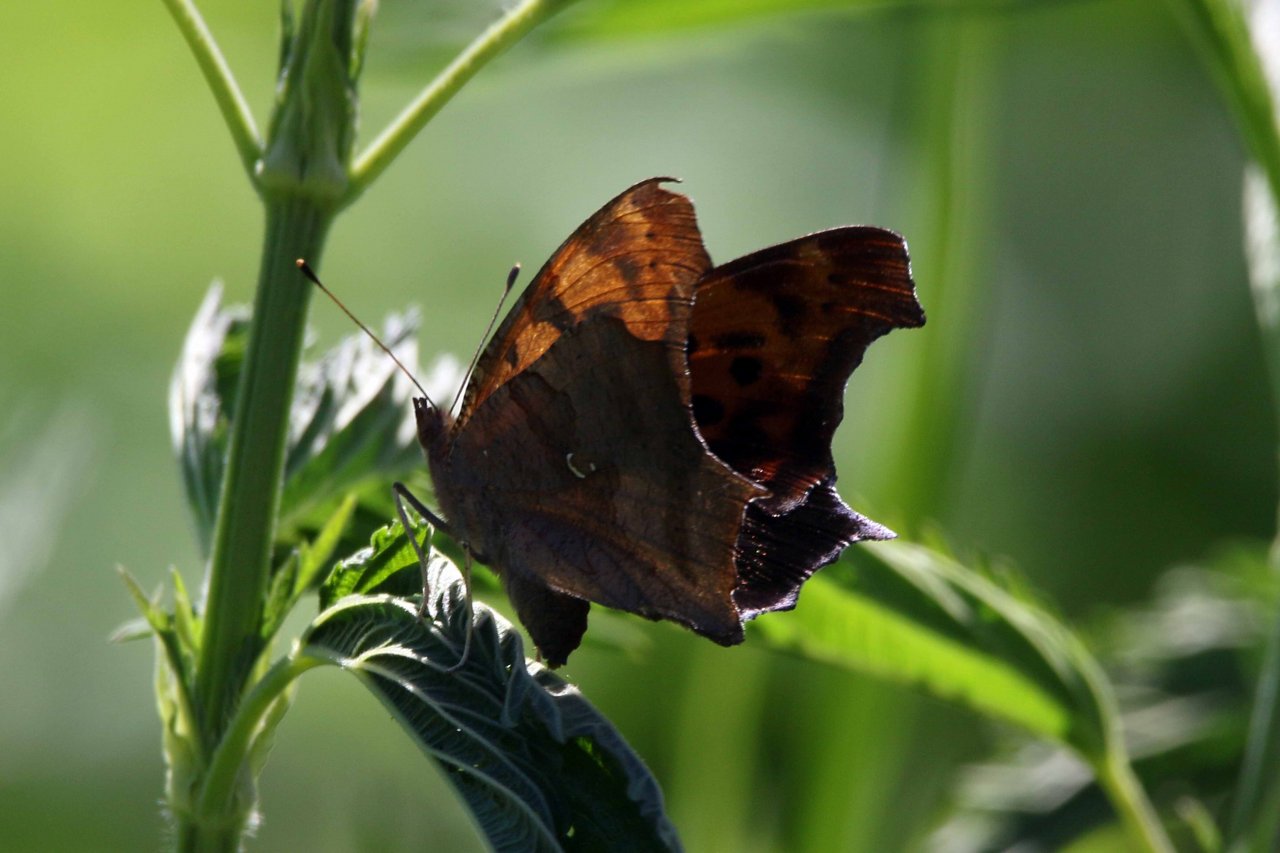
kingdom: Animalia
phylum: Arthropoda
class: Insecta
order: Lepidoptera
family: Nymphalidae
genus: Polygonia
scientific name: Polygonia interrogationis
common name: Question Mark
